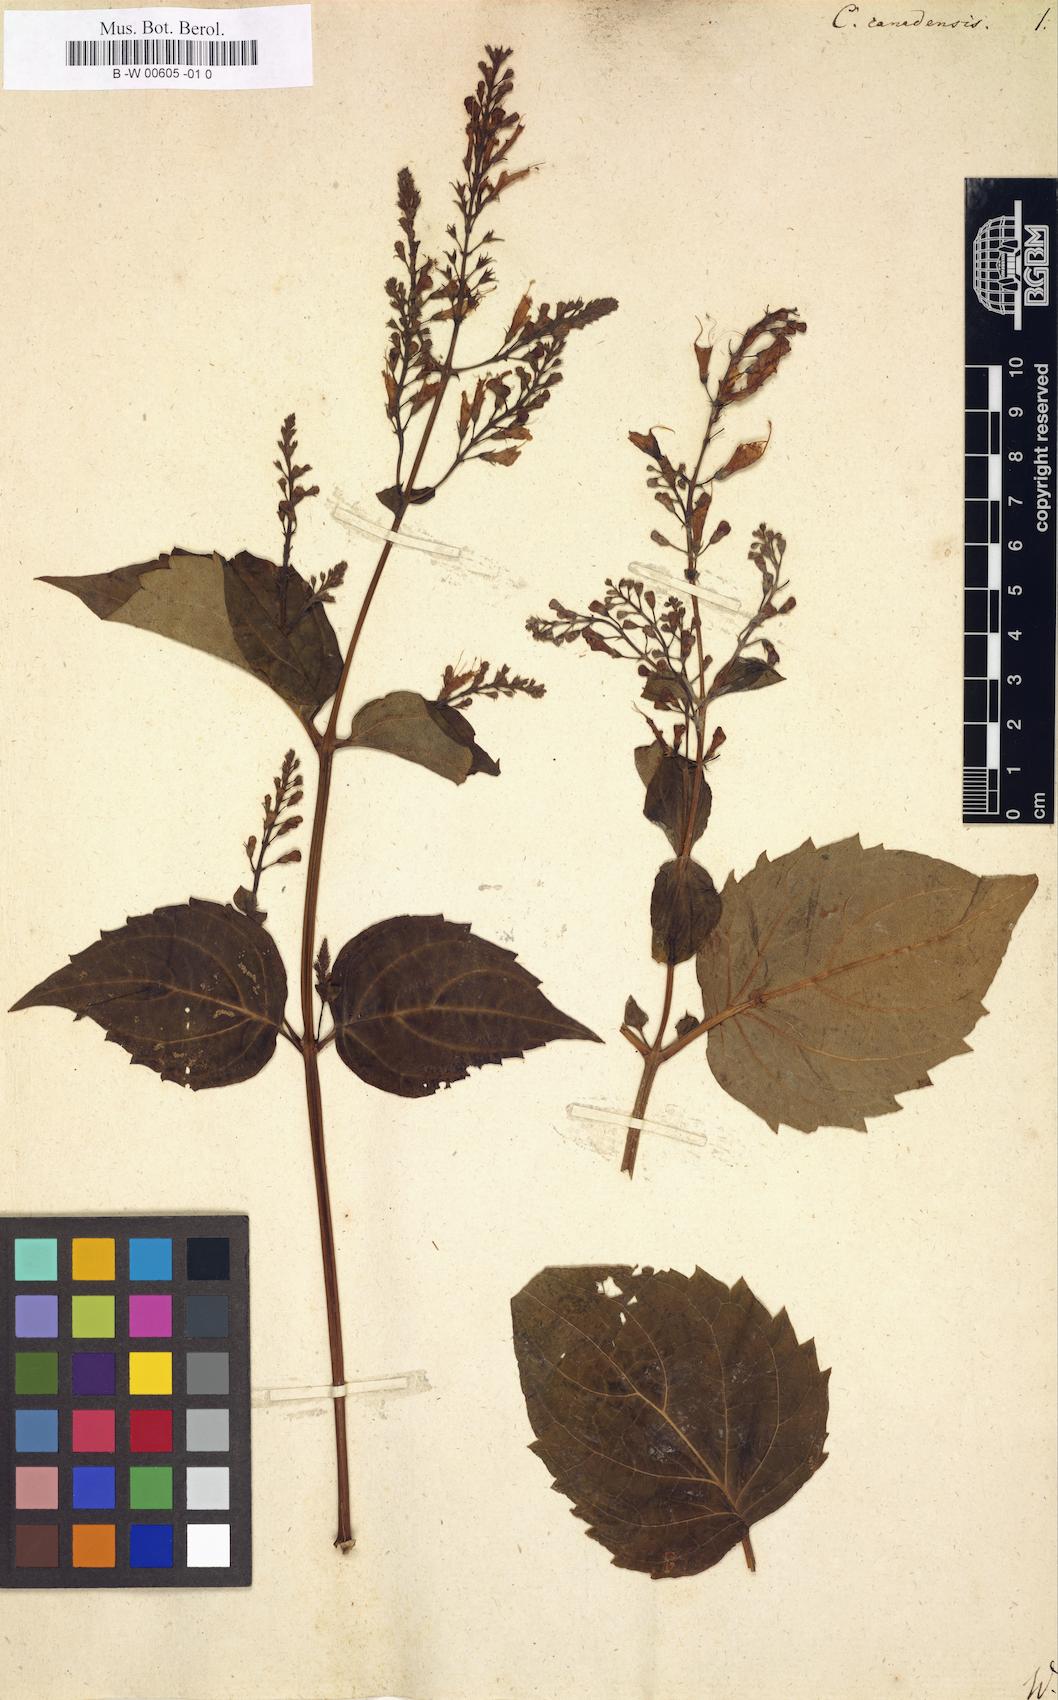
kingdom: Plantae
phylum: Tracheophyta
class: Magnoliopsida
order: Lamiales
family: Lamiaceae
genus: Collinsonia
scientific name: Collinsonia canadensis
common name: Northern horsebalm
